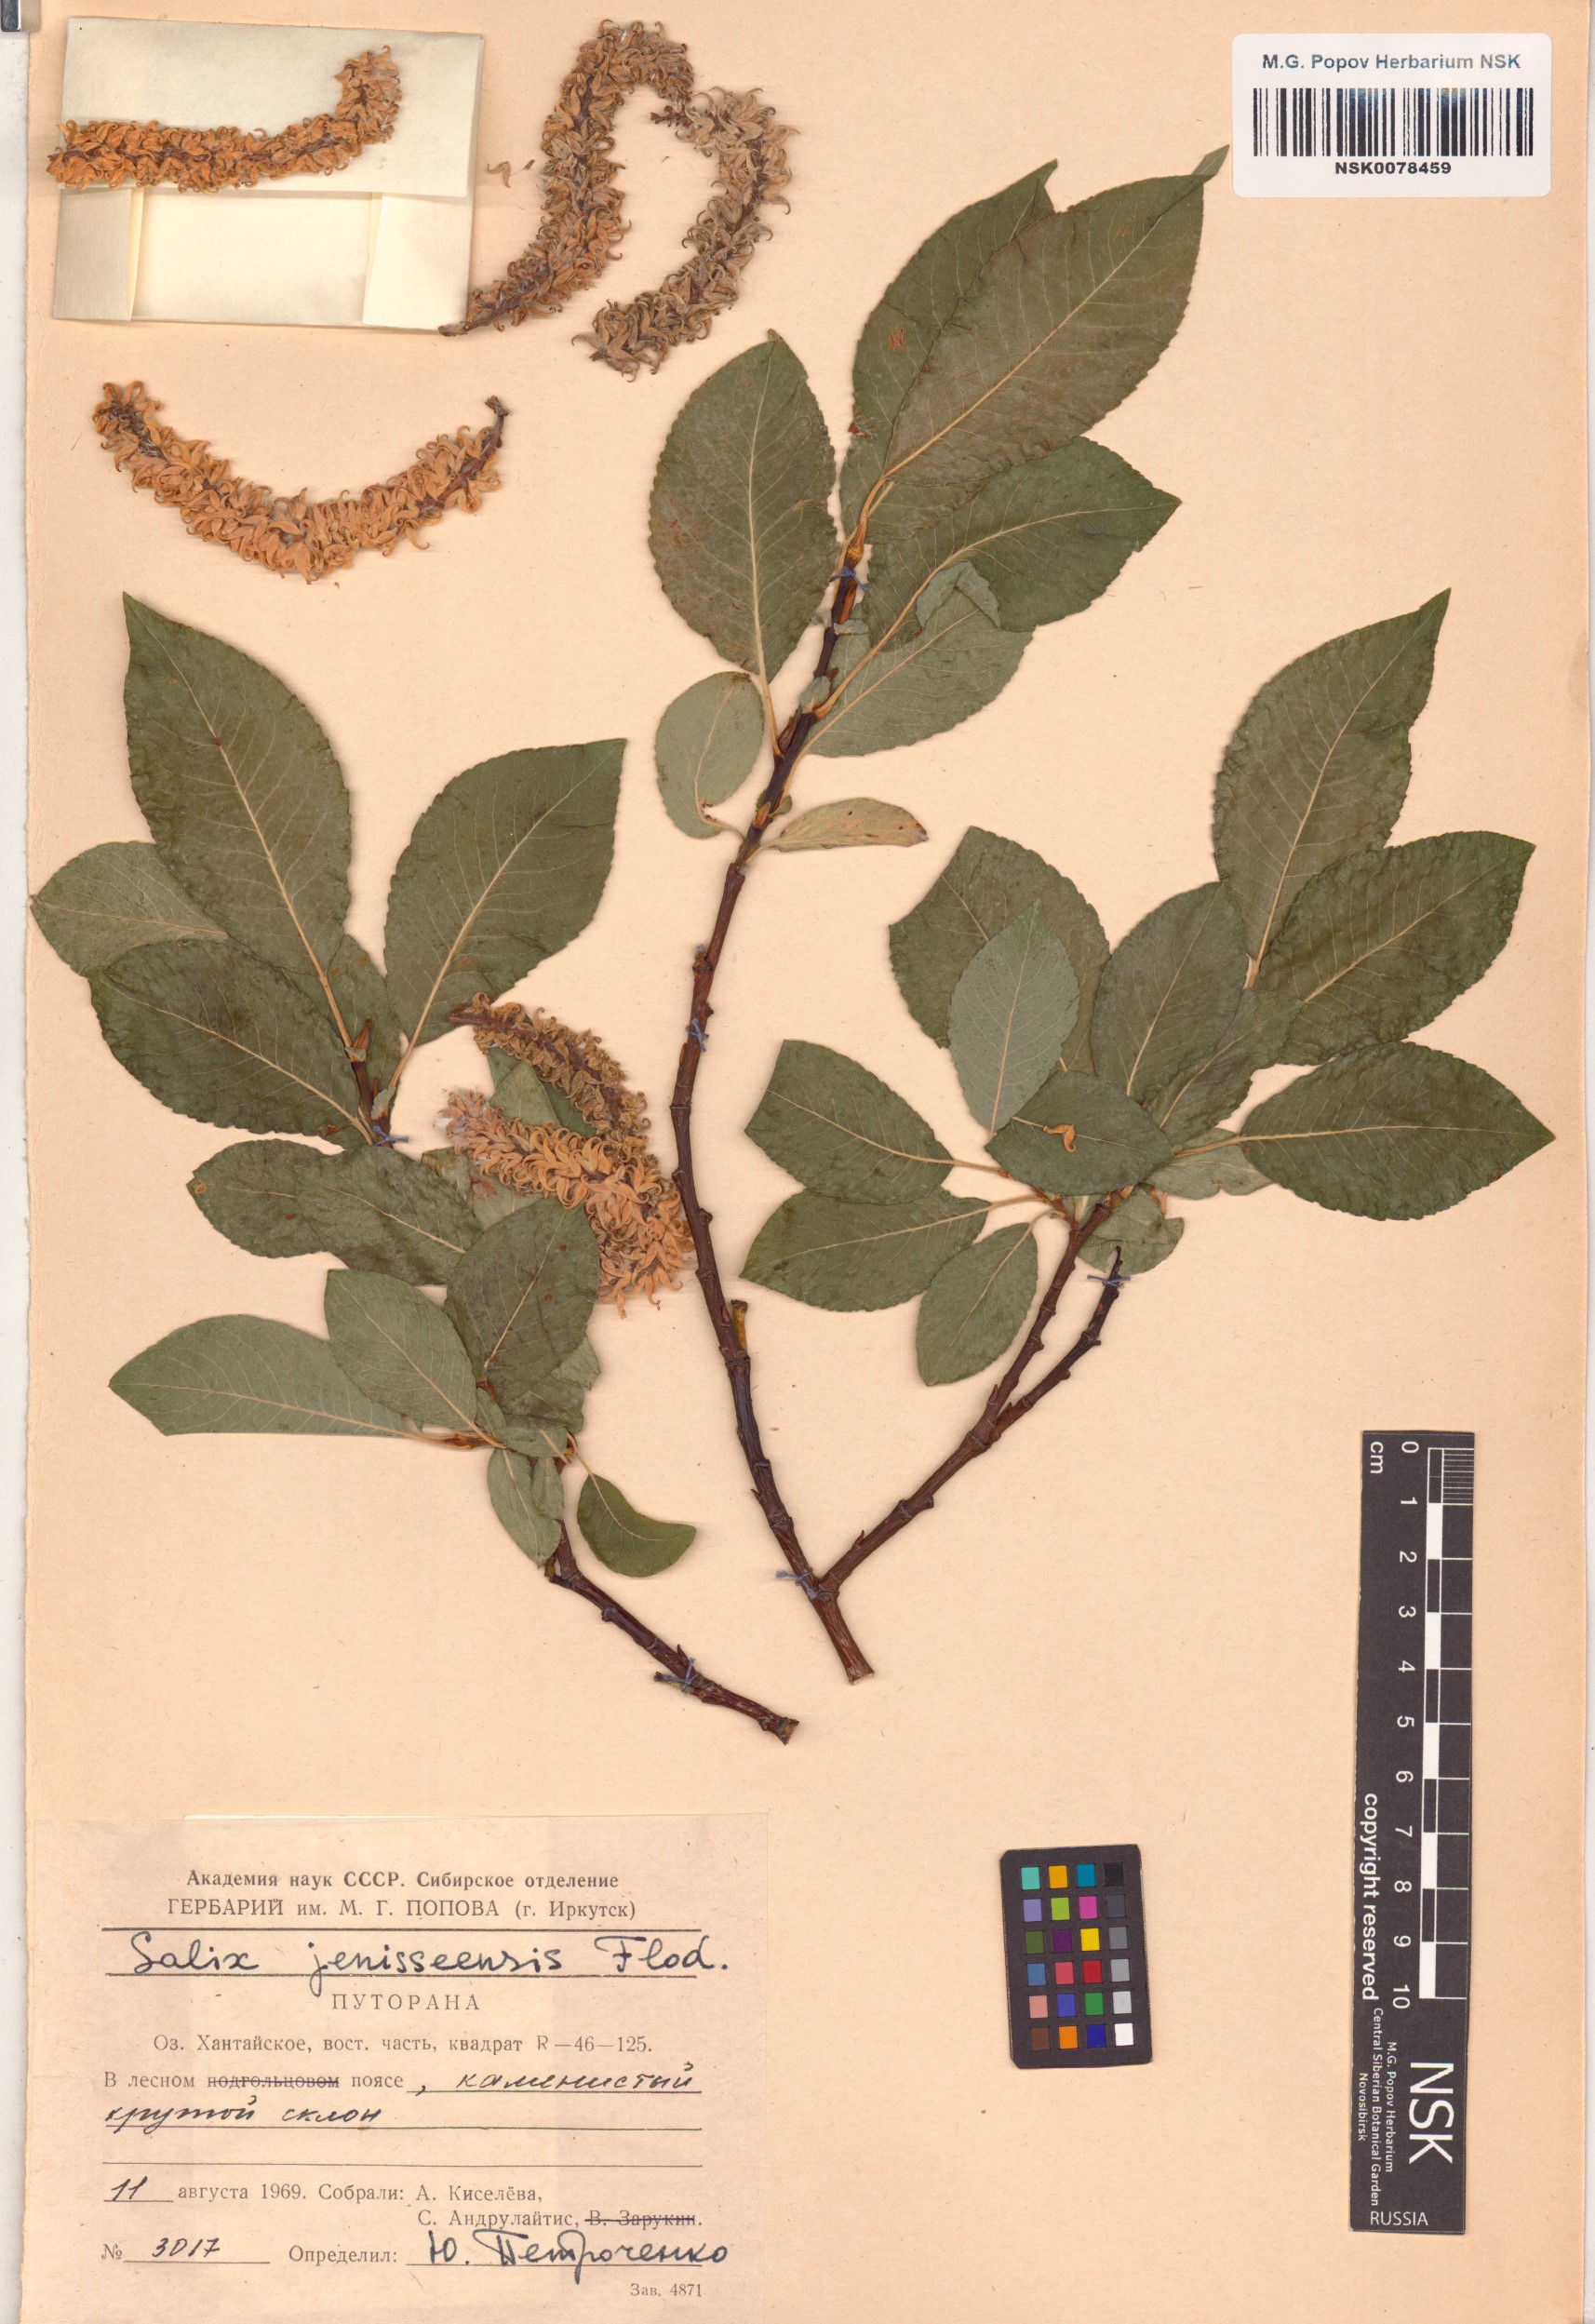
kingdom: Plantae
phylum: Tracheophyta
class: Magnoliopsida
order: Malpighiales
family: Salicaceae
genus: Salix
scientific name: Salix jenisseensis
